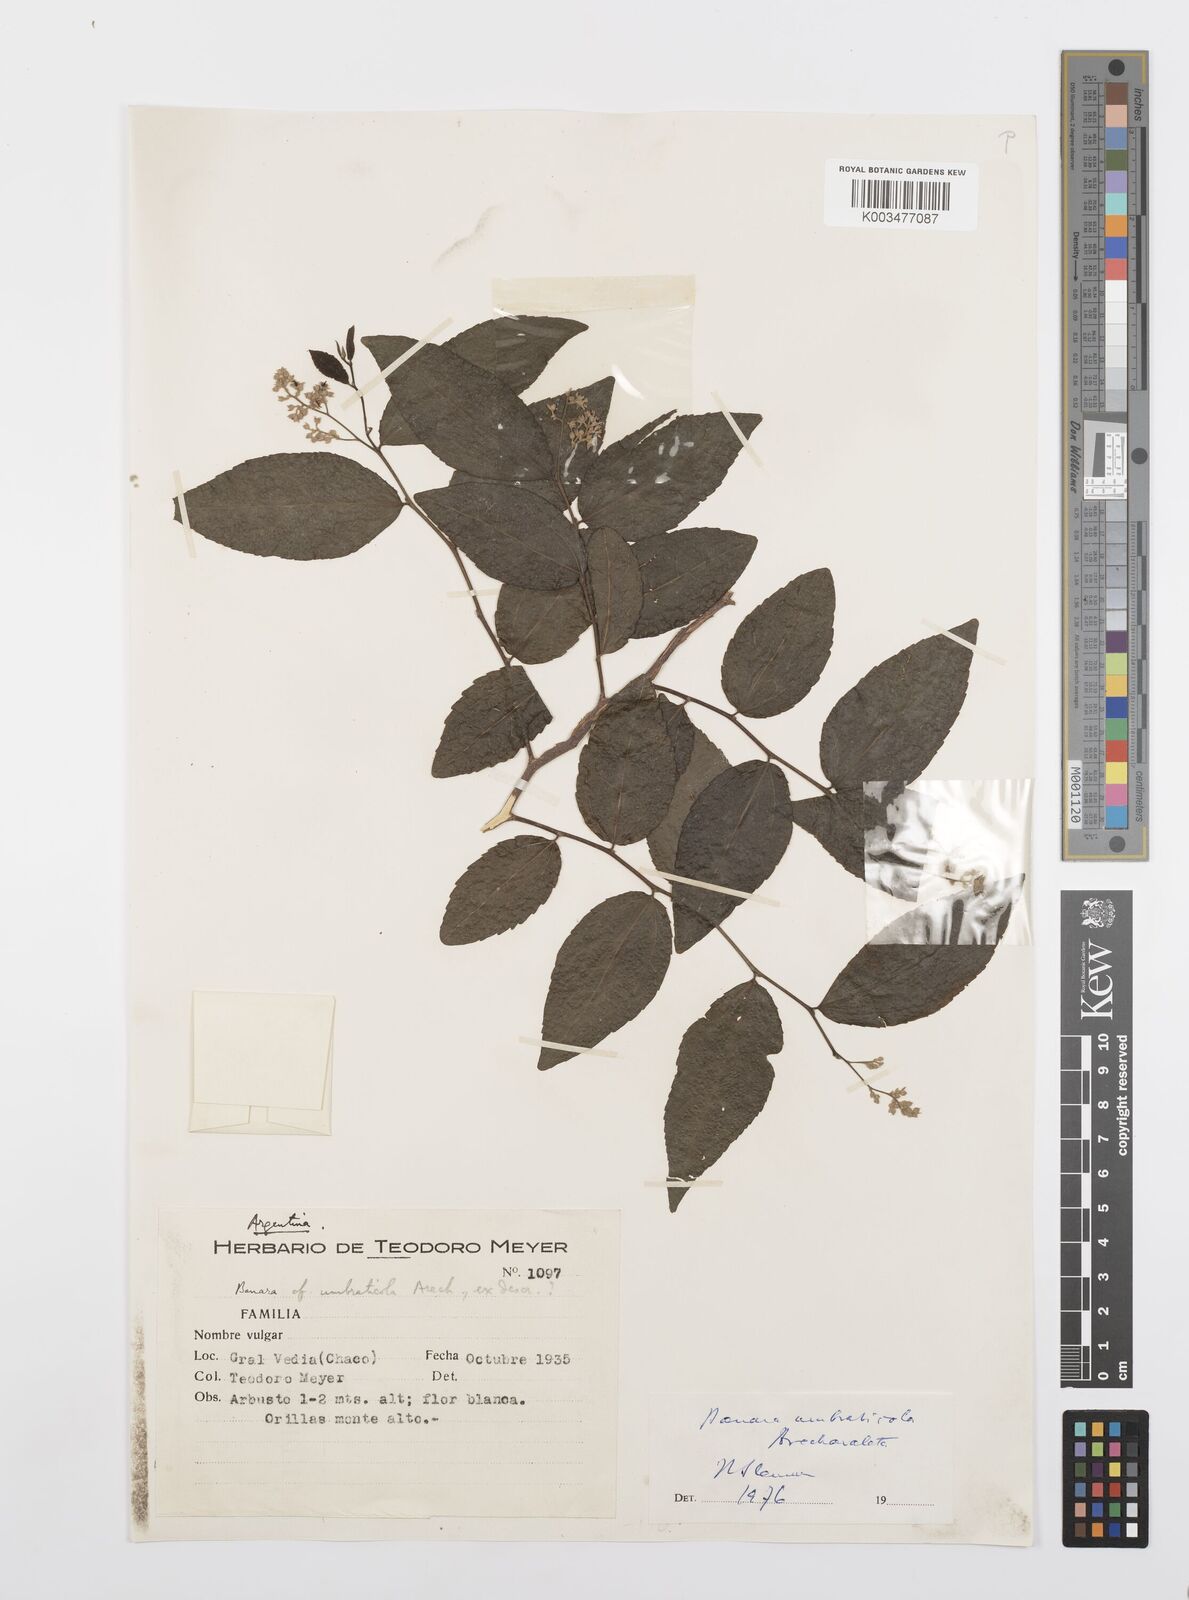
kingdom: Plantae
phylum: Tracheophyta
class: Magnoliopsida
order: Malpighiales
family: Salicaceae
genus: Banara
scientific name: Banara umbraticola
